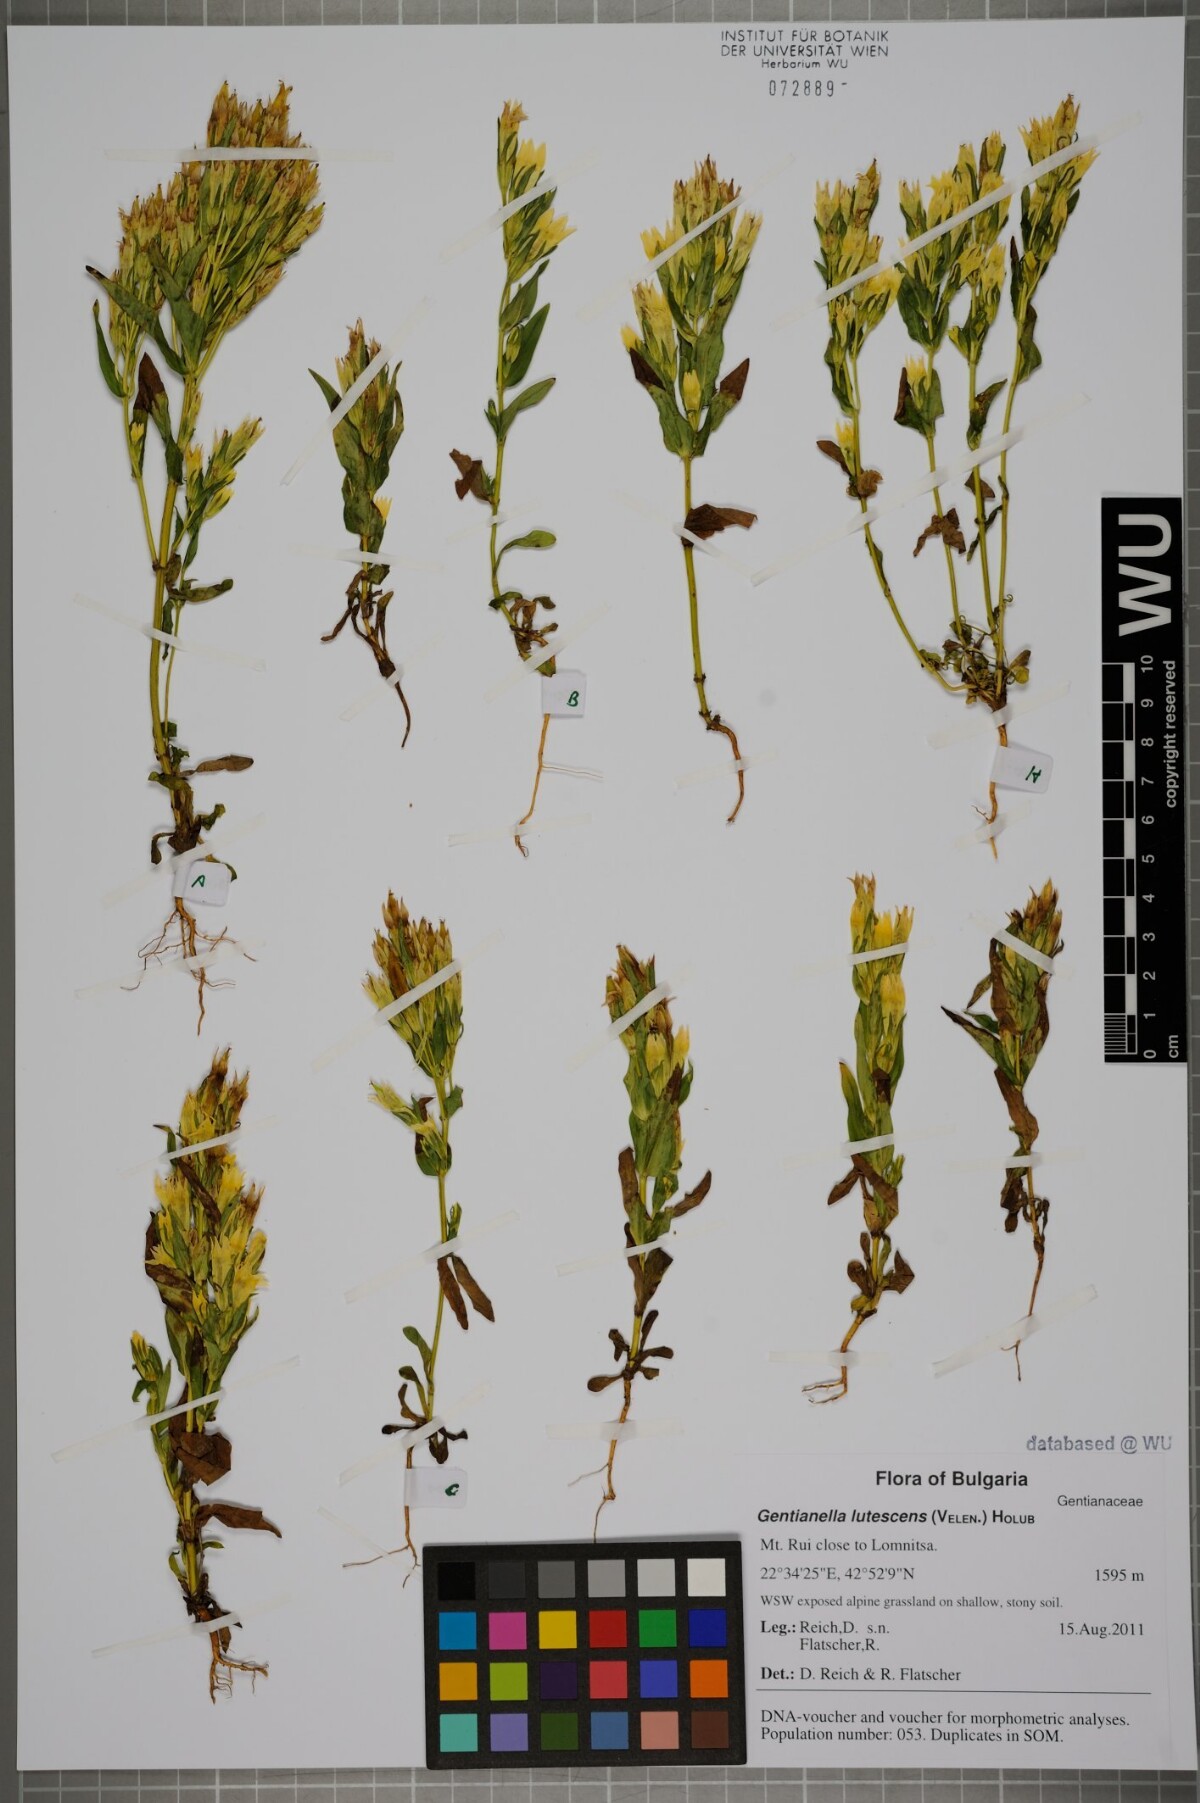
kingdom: Plantae
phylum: Tracheophyta
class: Magnoliopsida
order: Gentianales
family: Gentianaceae
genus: Gentianella
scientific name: Gentianella praecox
